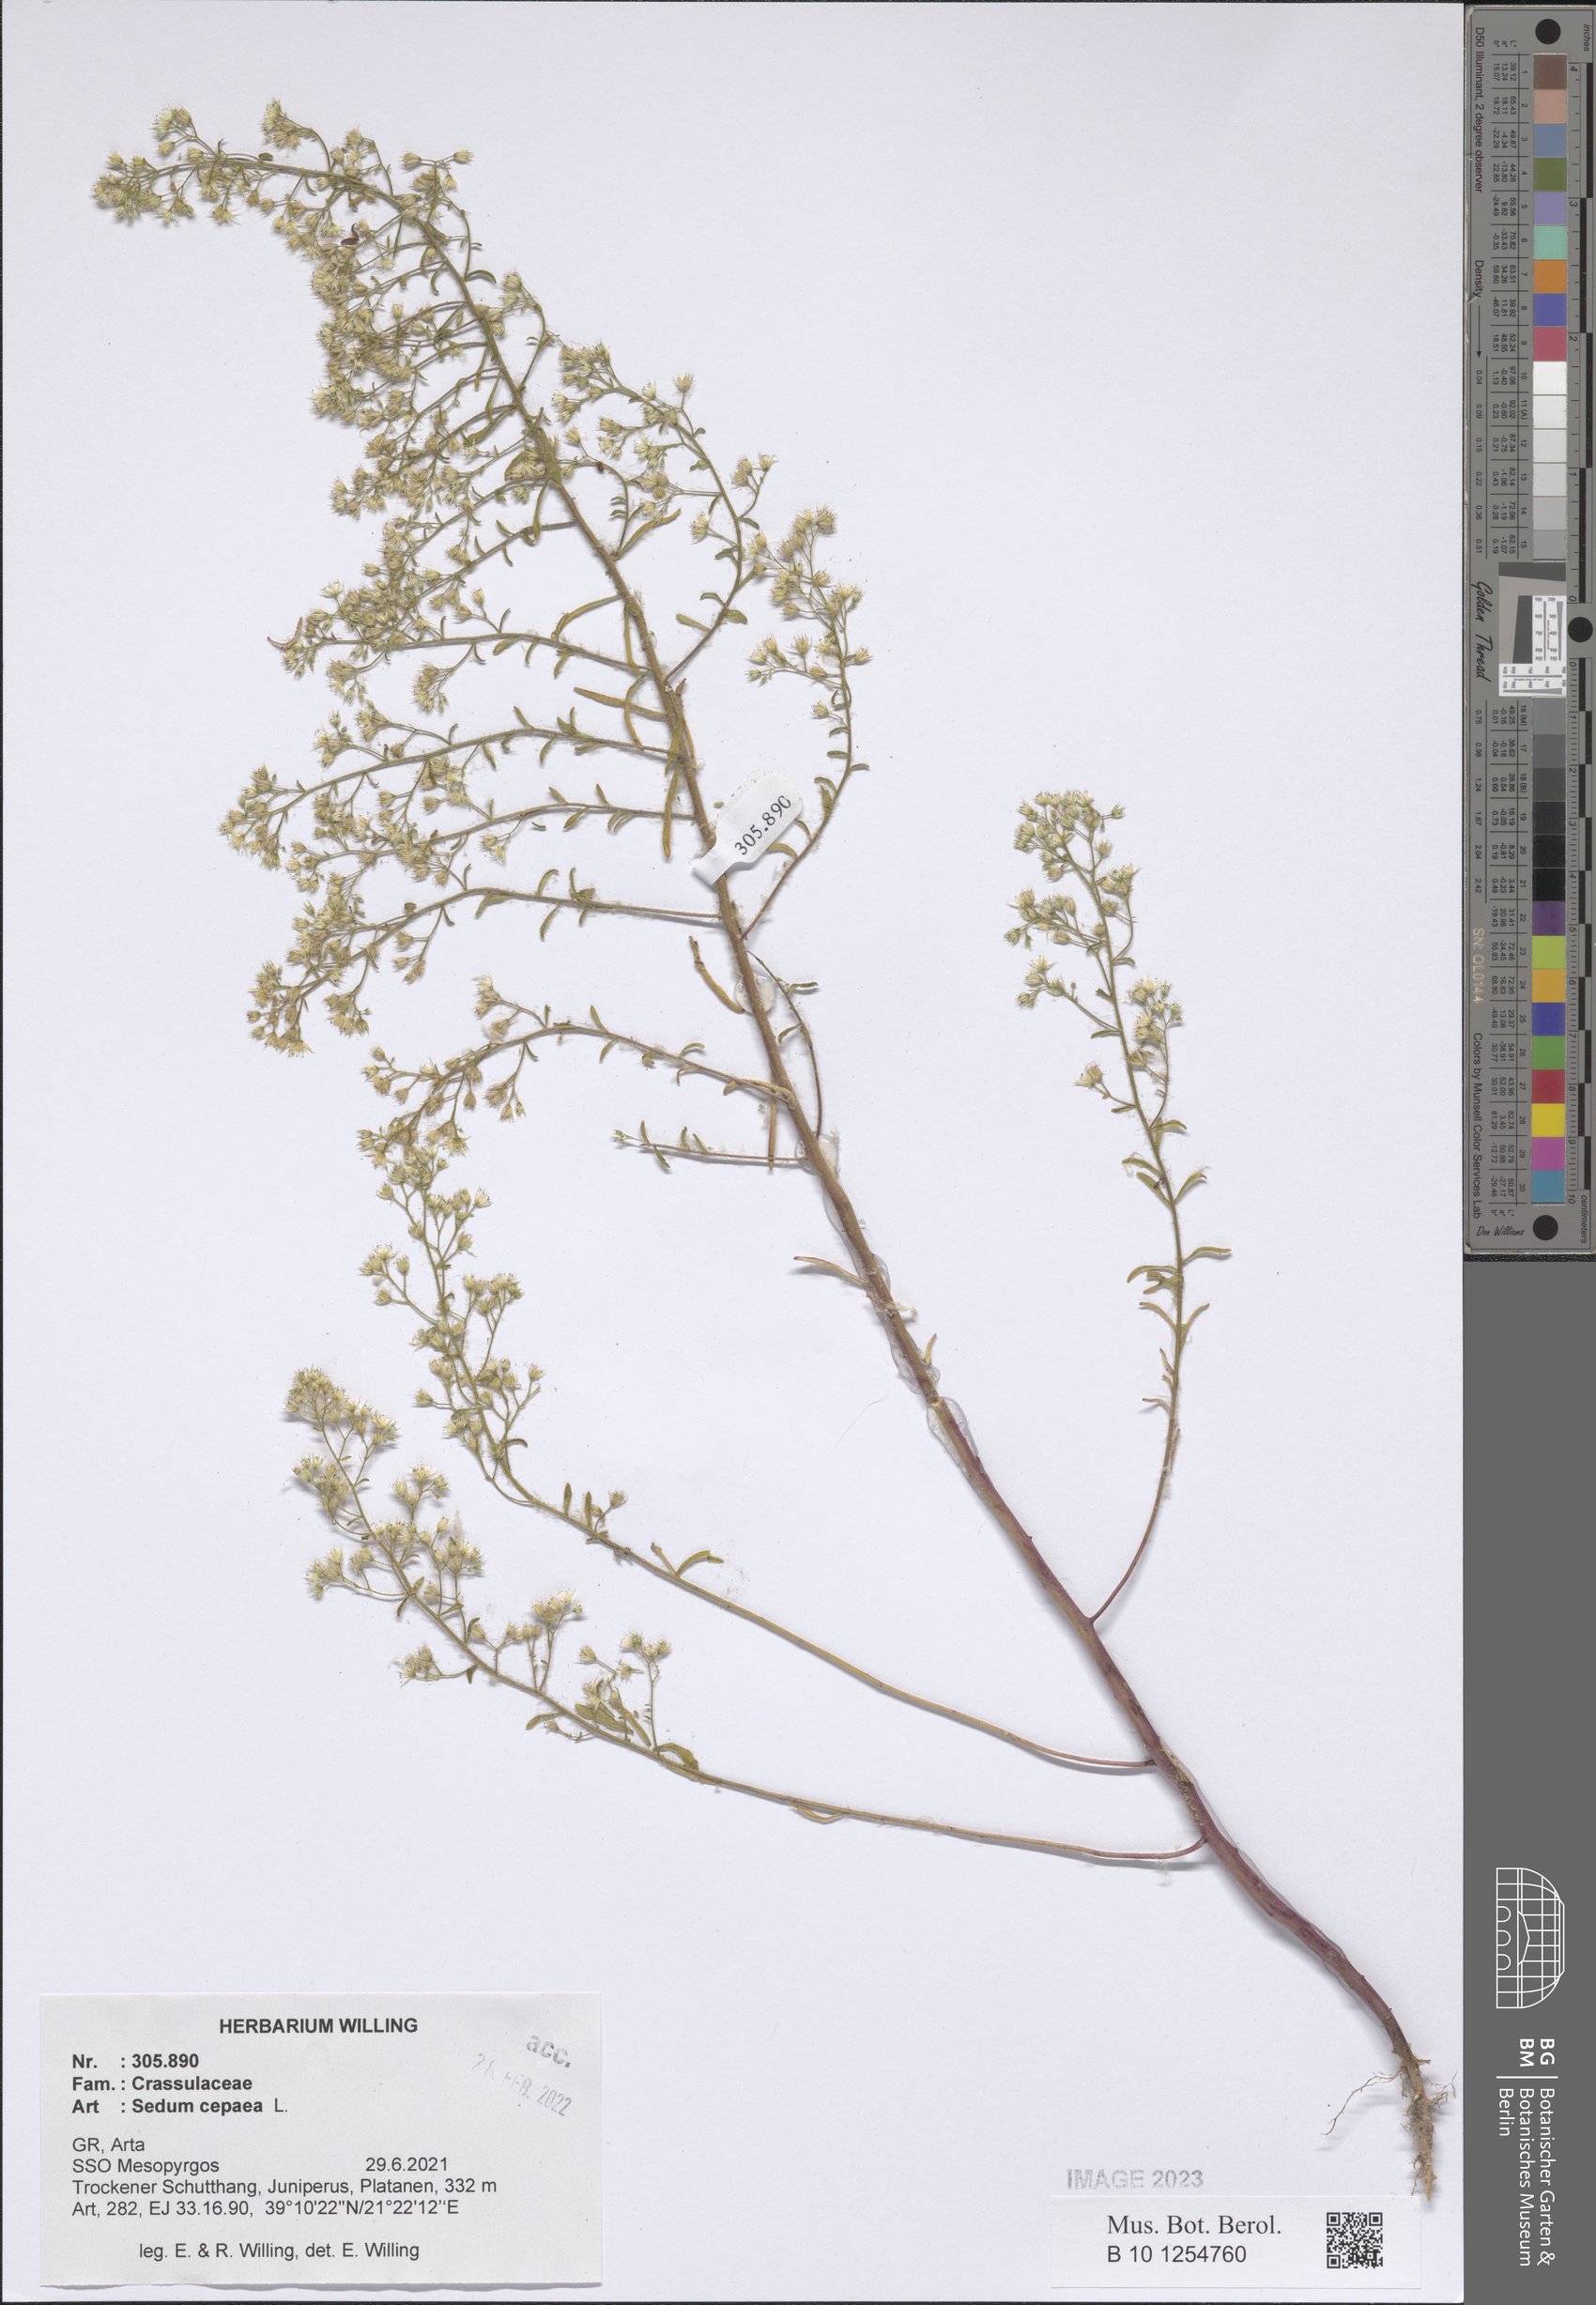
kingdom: Plantae
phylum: Tracheophyta
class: Magnoliopsida
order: Saxifragales
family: Crassulaceae
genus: Sedum
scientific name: Sedum cepaea
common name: Pink stonecrop
